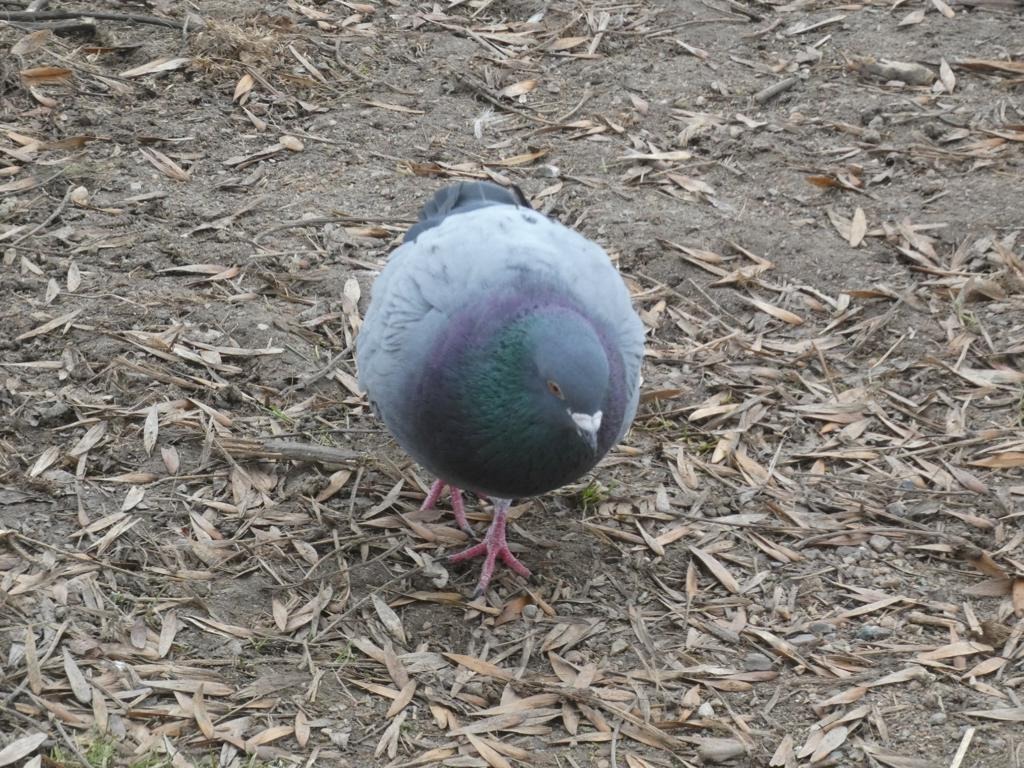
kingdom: Animalia
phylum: Chordata
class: Aves
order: Columbiformes
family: Columbidae
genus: Columba
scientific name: Columba livia
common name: Tamdue
